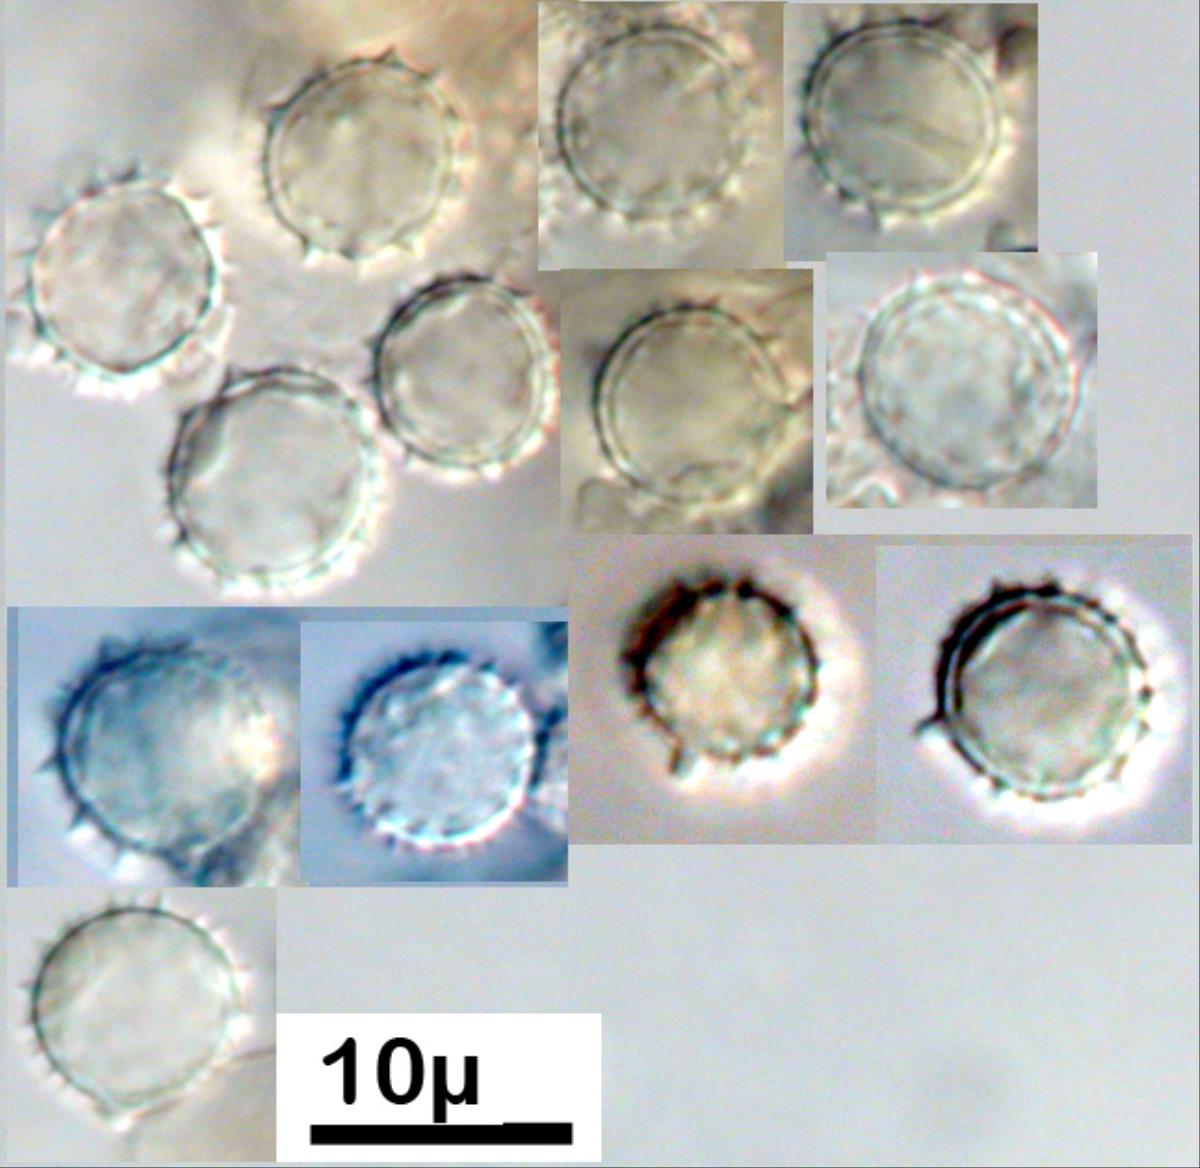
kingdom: Fungi
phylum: Basidiomycota
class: Agaricomycetes
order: Agaricales
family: Hydnangiaceae
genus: Laccaria
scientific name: Laccaria laccata
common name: Deceiver
